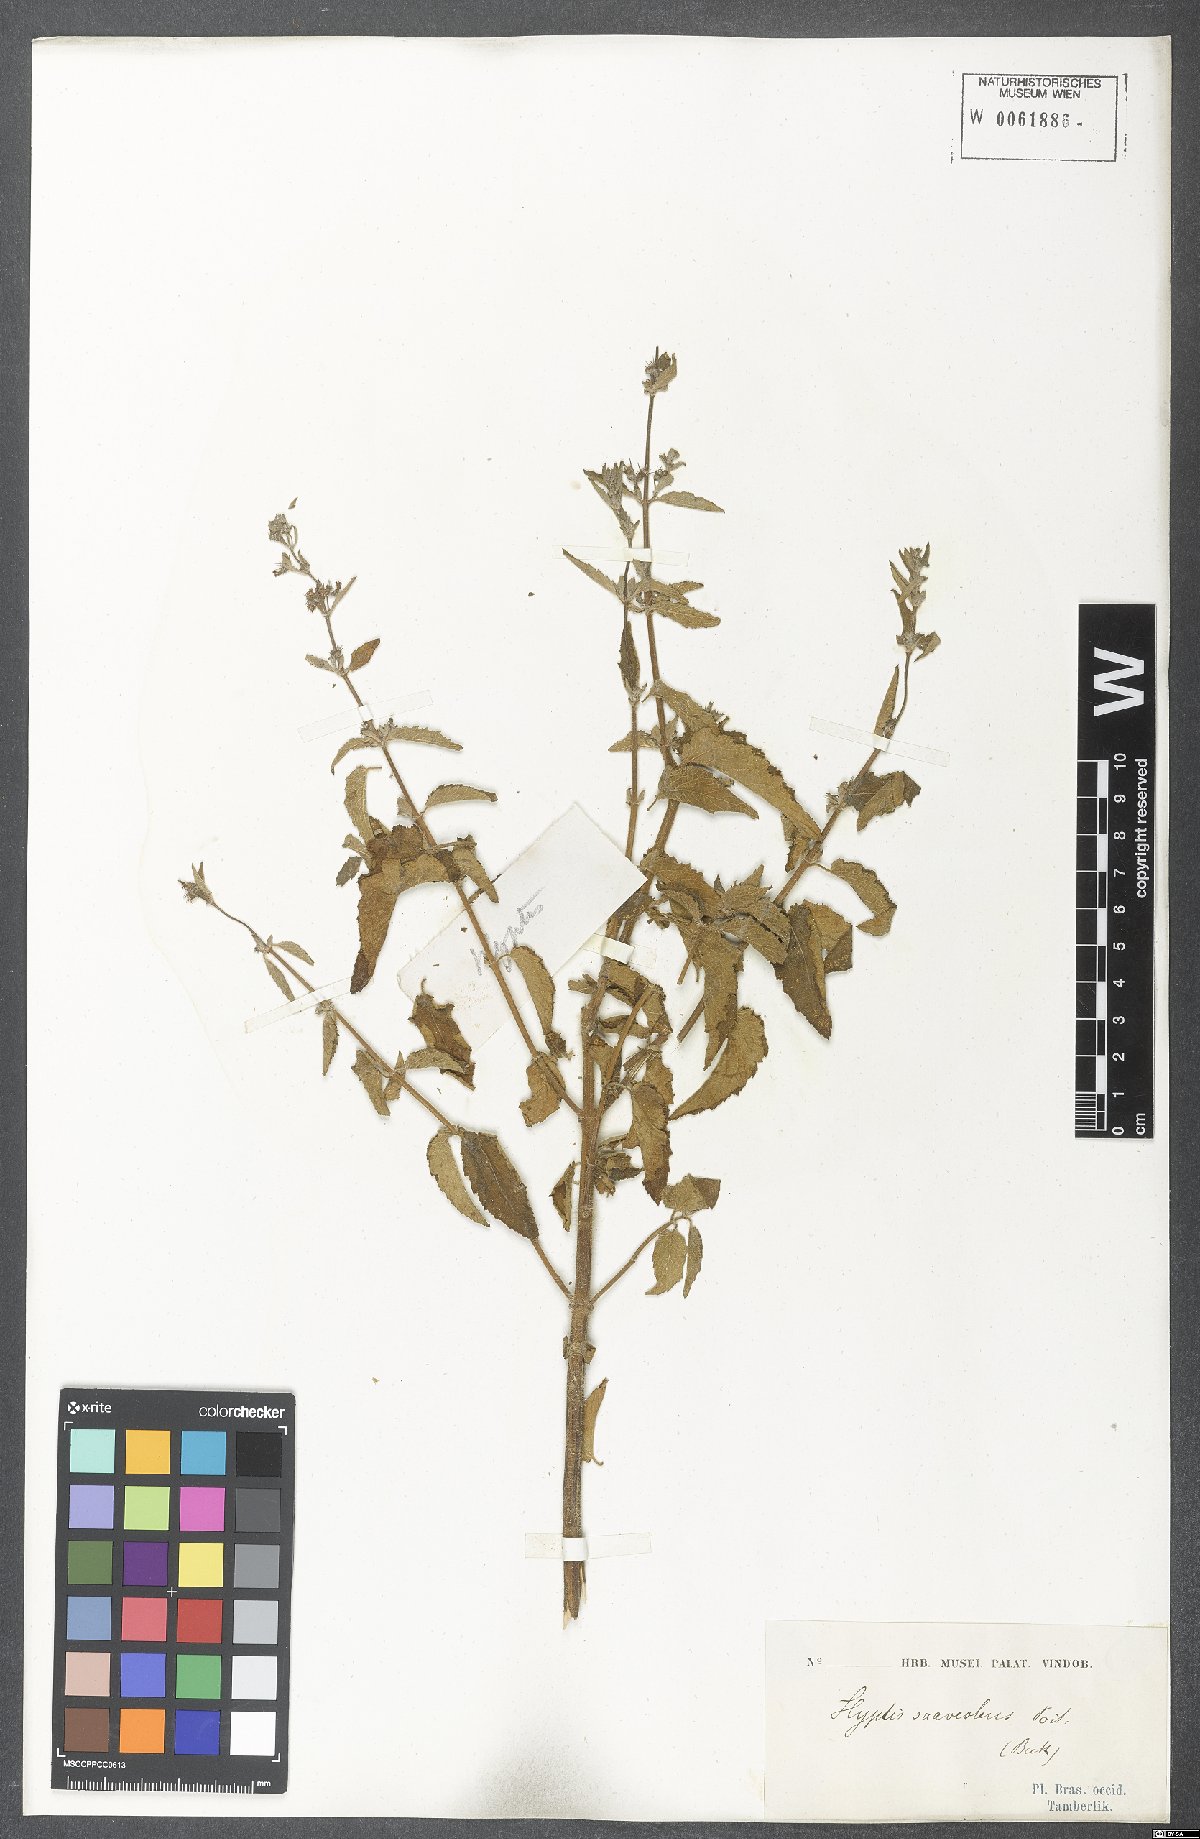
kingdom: Plantae
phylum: Tracheophyta
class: Magnoliopsida
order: Lamiales
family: Lamiaceae
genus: Mesosphaerum
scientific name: Mesosphaerum suaveolens
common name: Pignut
